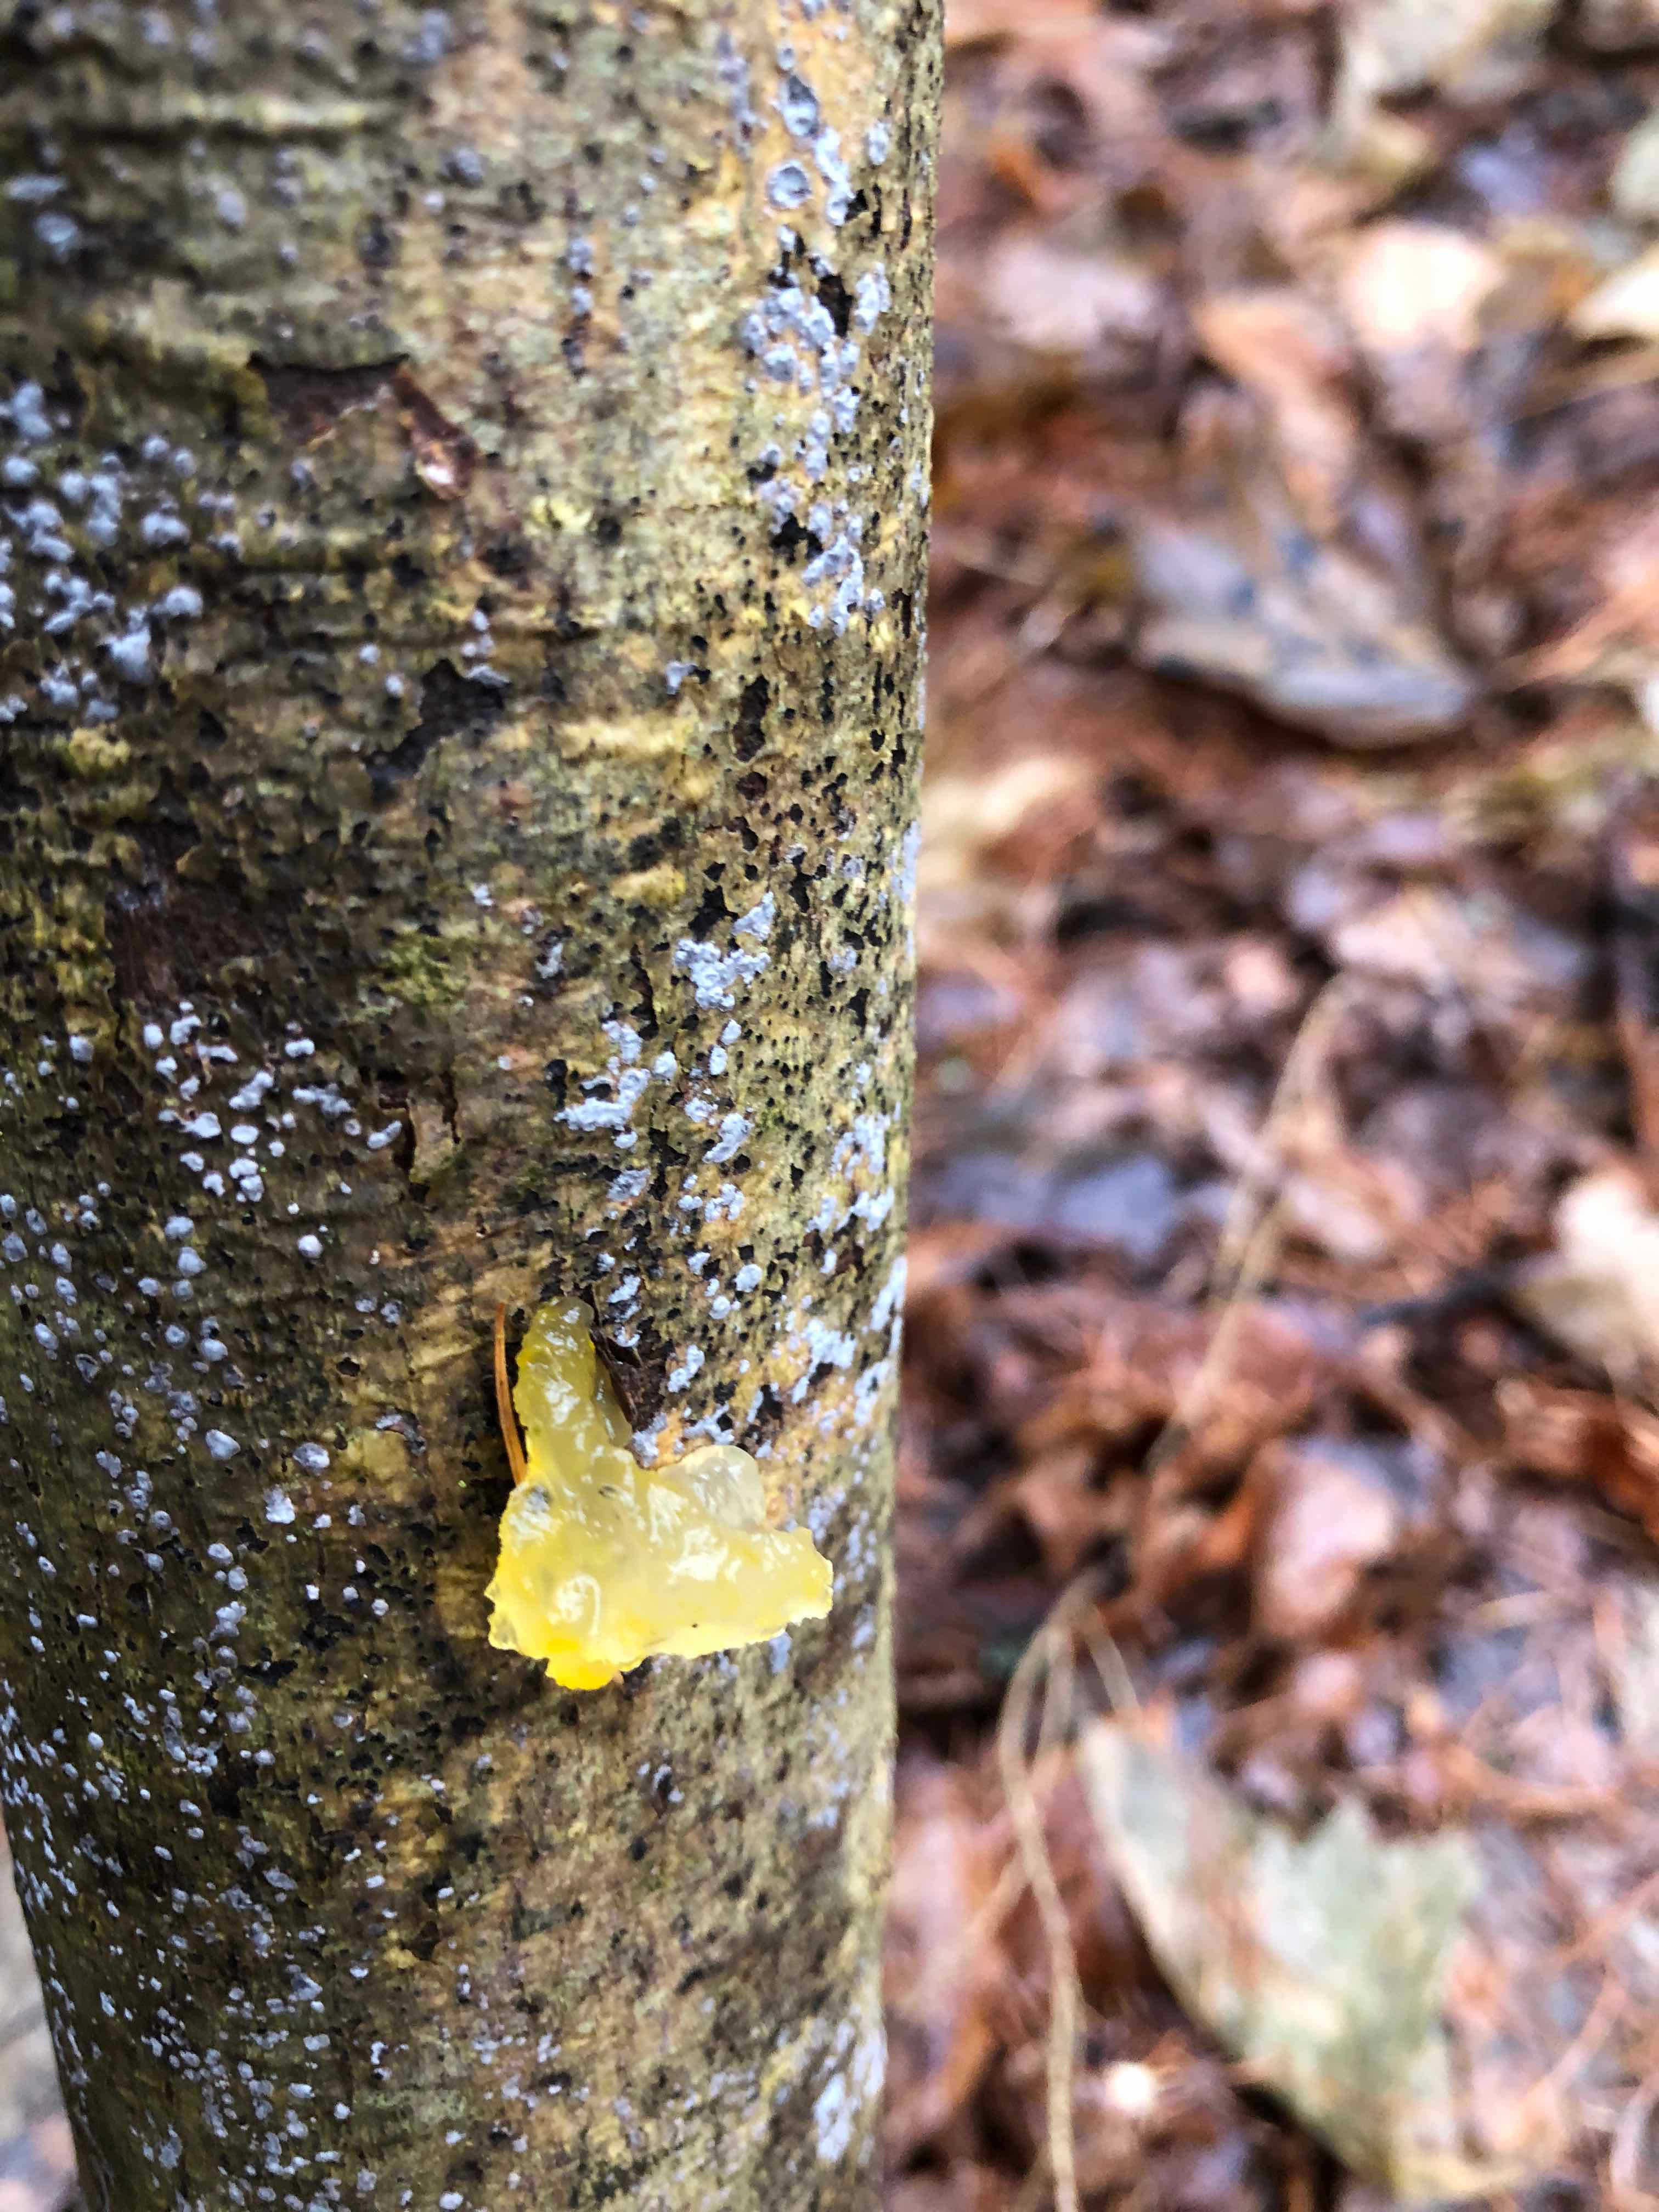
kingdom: Fungi
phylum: Basidiomycota
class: Tremellomycetes
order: Tremellales
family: Tremellaceae
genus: Tremella
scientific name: Tremella mesenterica
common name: gul bævresvamp
